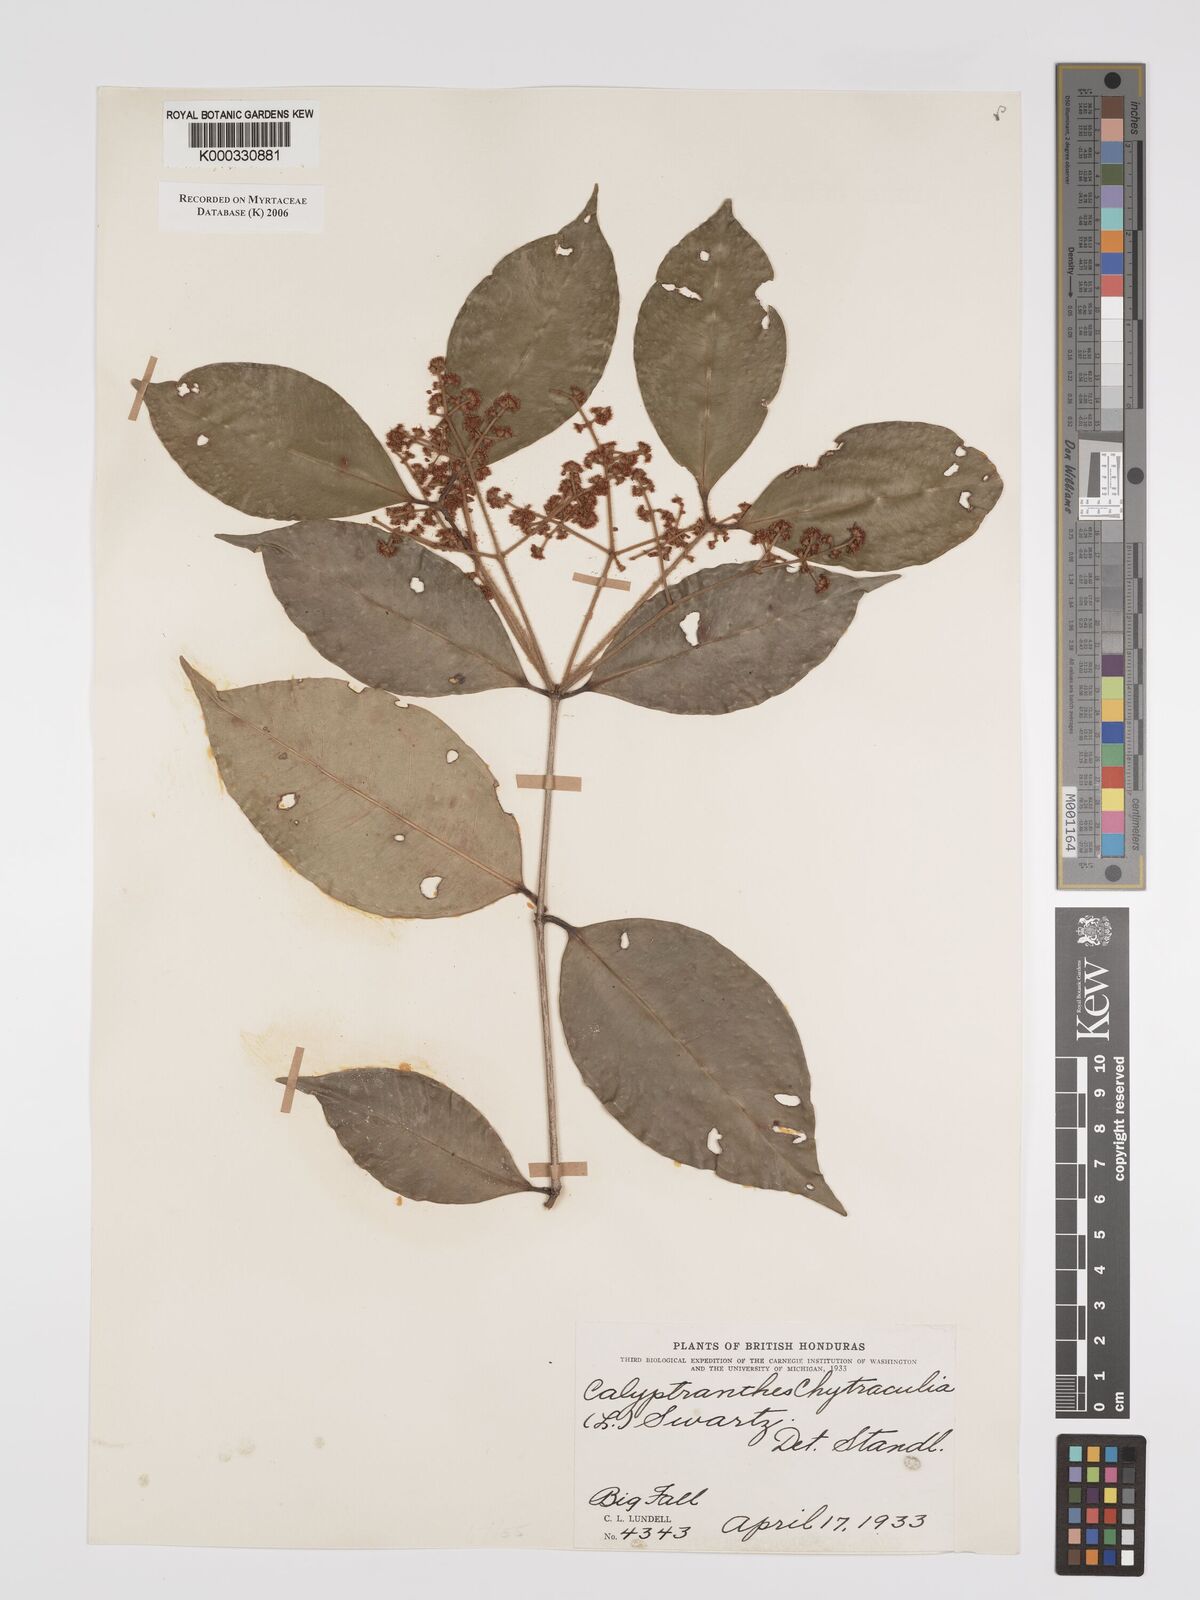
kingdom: Plantae
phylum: Tracheophyta
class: Magnoliopsida
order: Myrtales
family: Myrtaceae
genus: Myrcia
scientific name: Myrcia chytraculia
